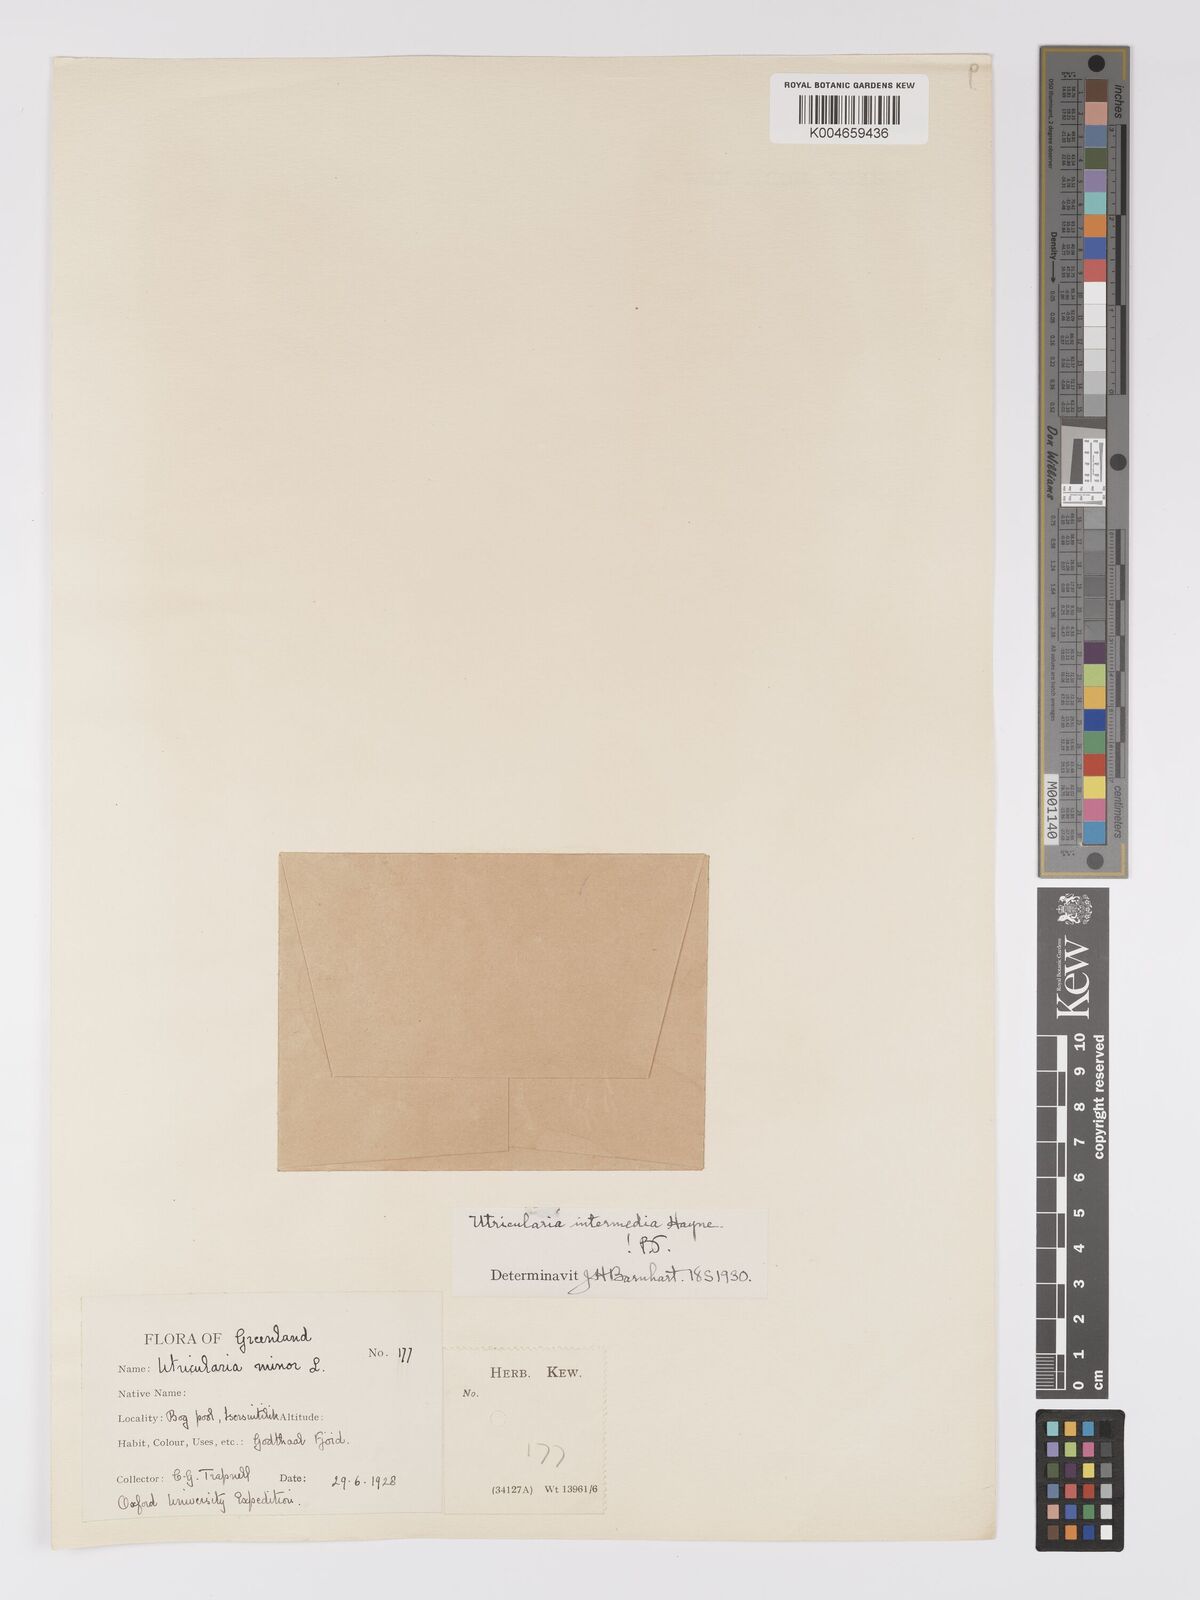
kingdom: Plantae
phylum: Tracheophyta
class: Magnoliopsida
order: Lamiales
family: Lentibulariaceae
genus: Utricularia
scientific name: Utricularia intermedia
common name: Intermediate bladderwort
